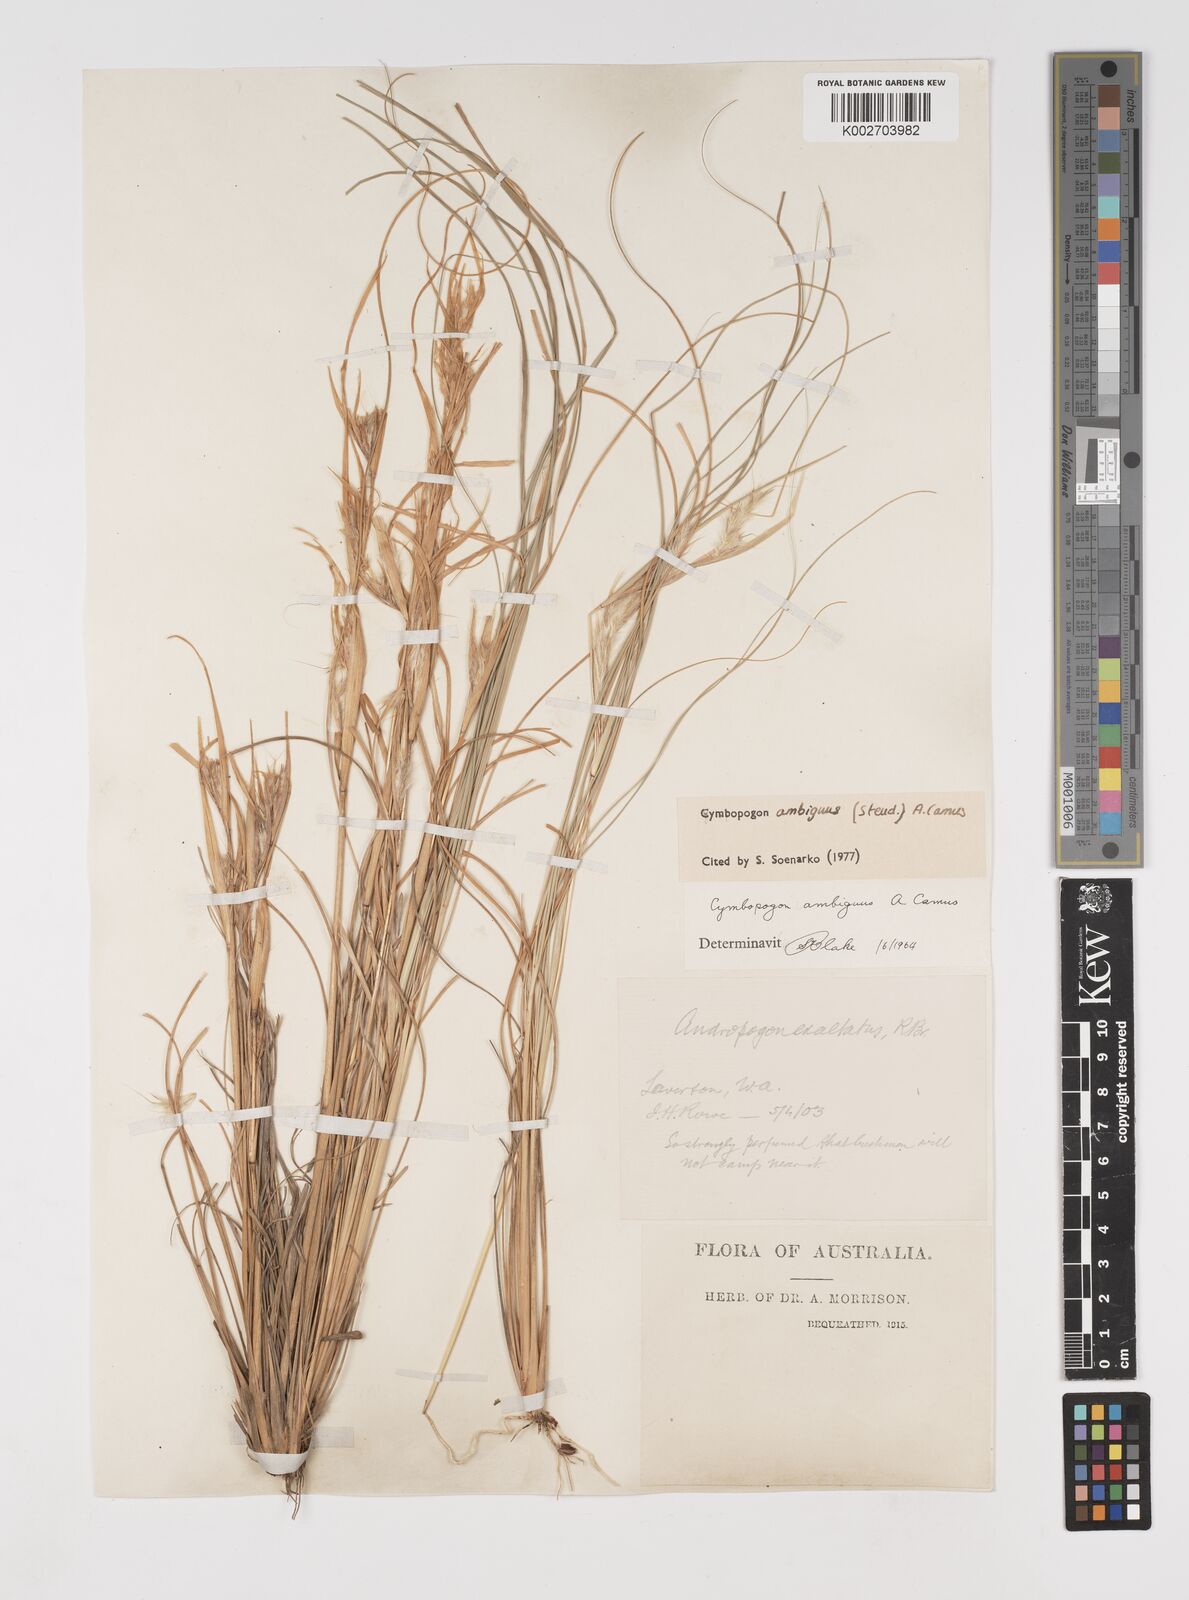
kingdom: Plantae
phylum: Tracheophyta
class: Liliopsida
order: Poales
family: Poaceae
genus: Cymbopogon
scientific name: Cymbopogon ambiguus
